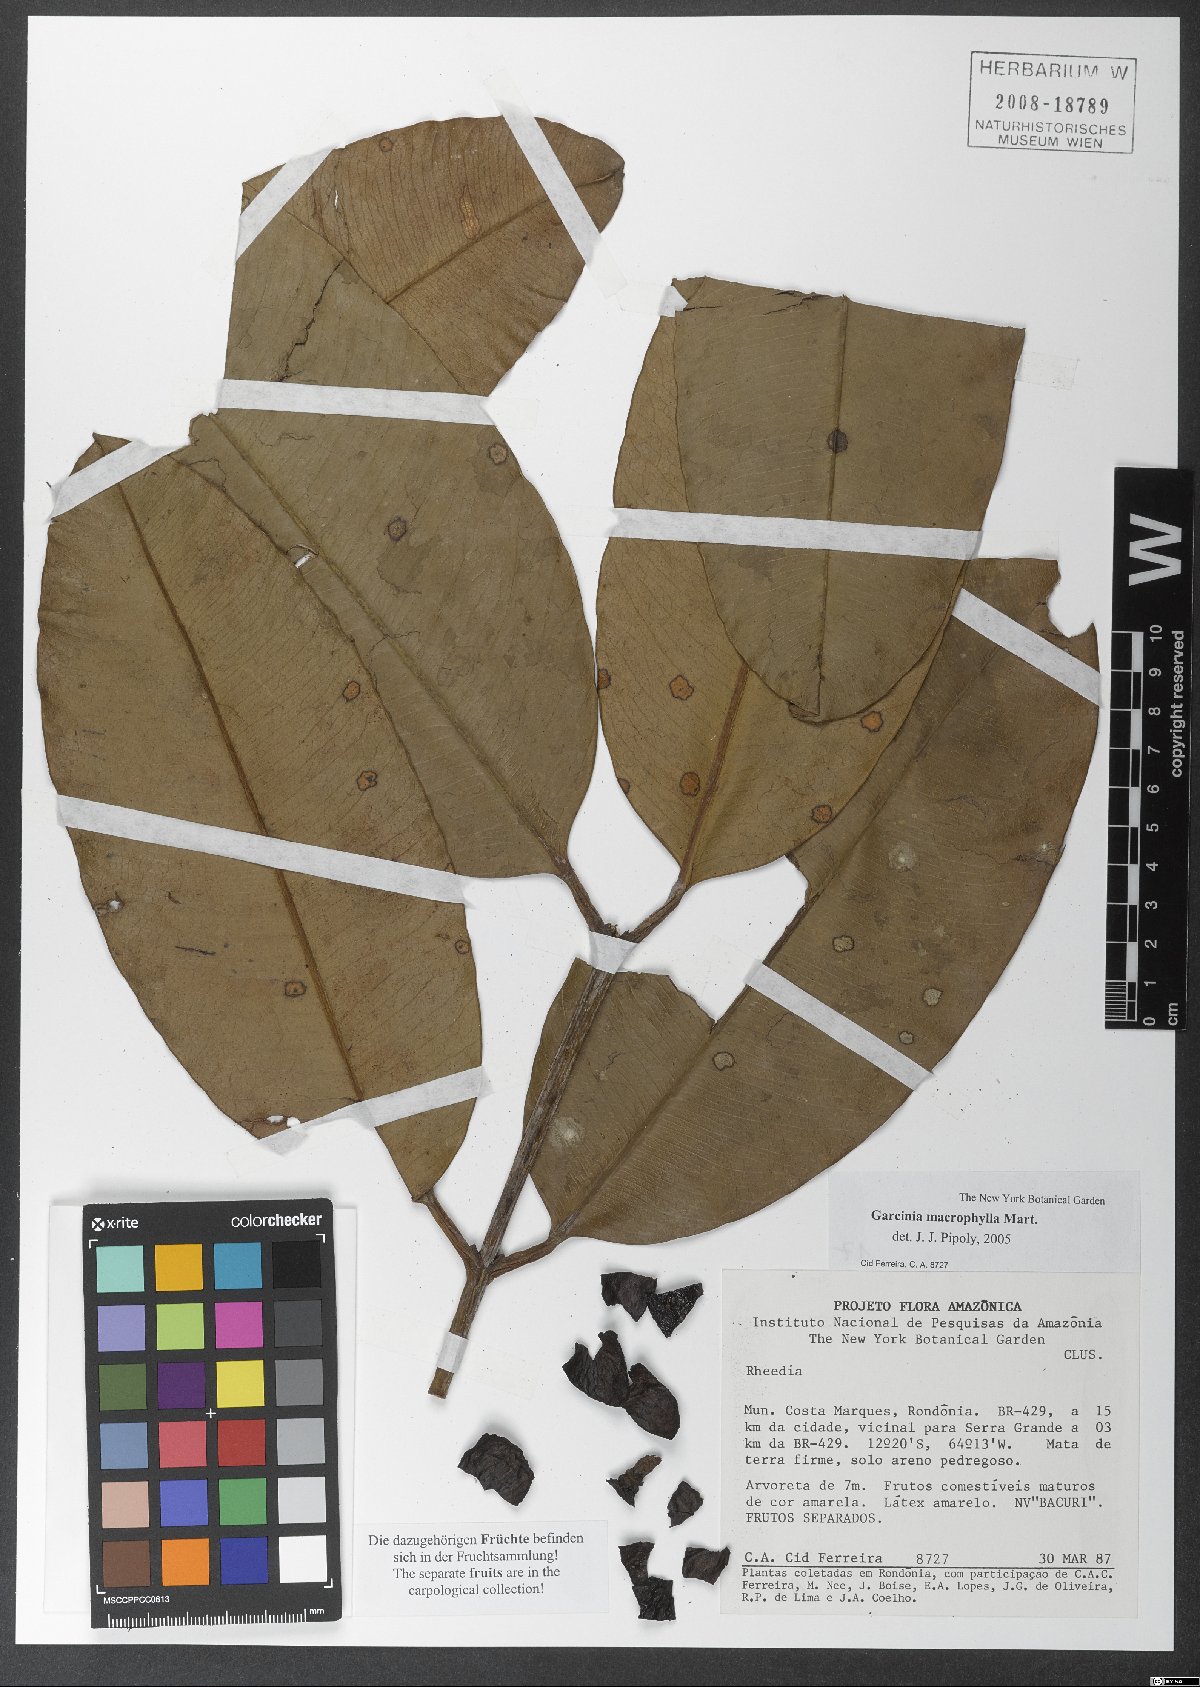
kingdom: Plantae
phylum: Tracheophyta
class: Magnoliopsida
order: Malpighiales
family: Clusiaceae
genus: Garcinia
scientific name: Garcinia macrophylla
